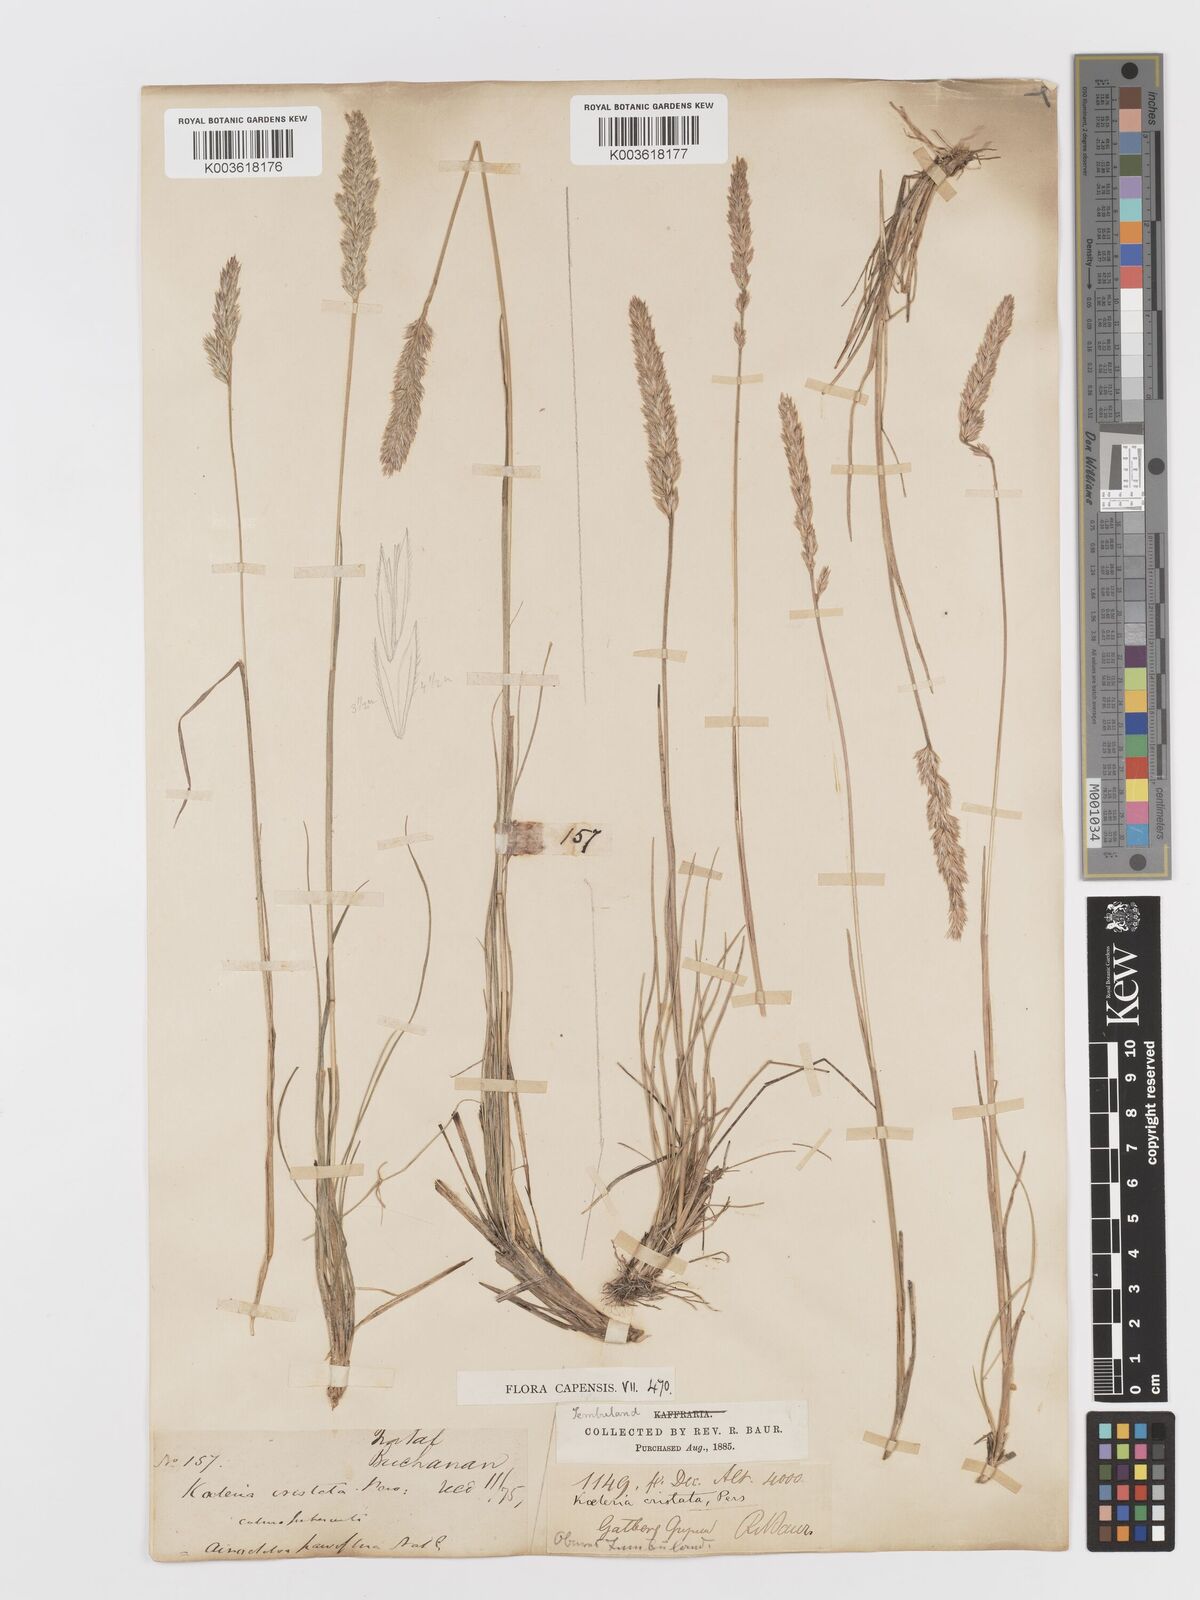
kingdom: Plantae
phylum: Tracheophyta
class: Liliopsida
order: Poales
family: Poaceae
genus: Koeleria
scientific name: Koeleria capensis
